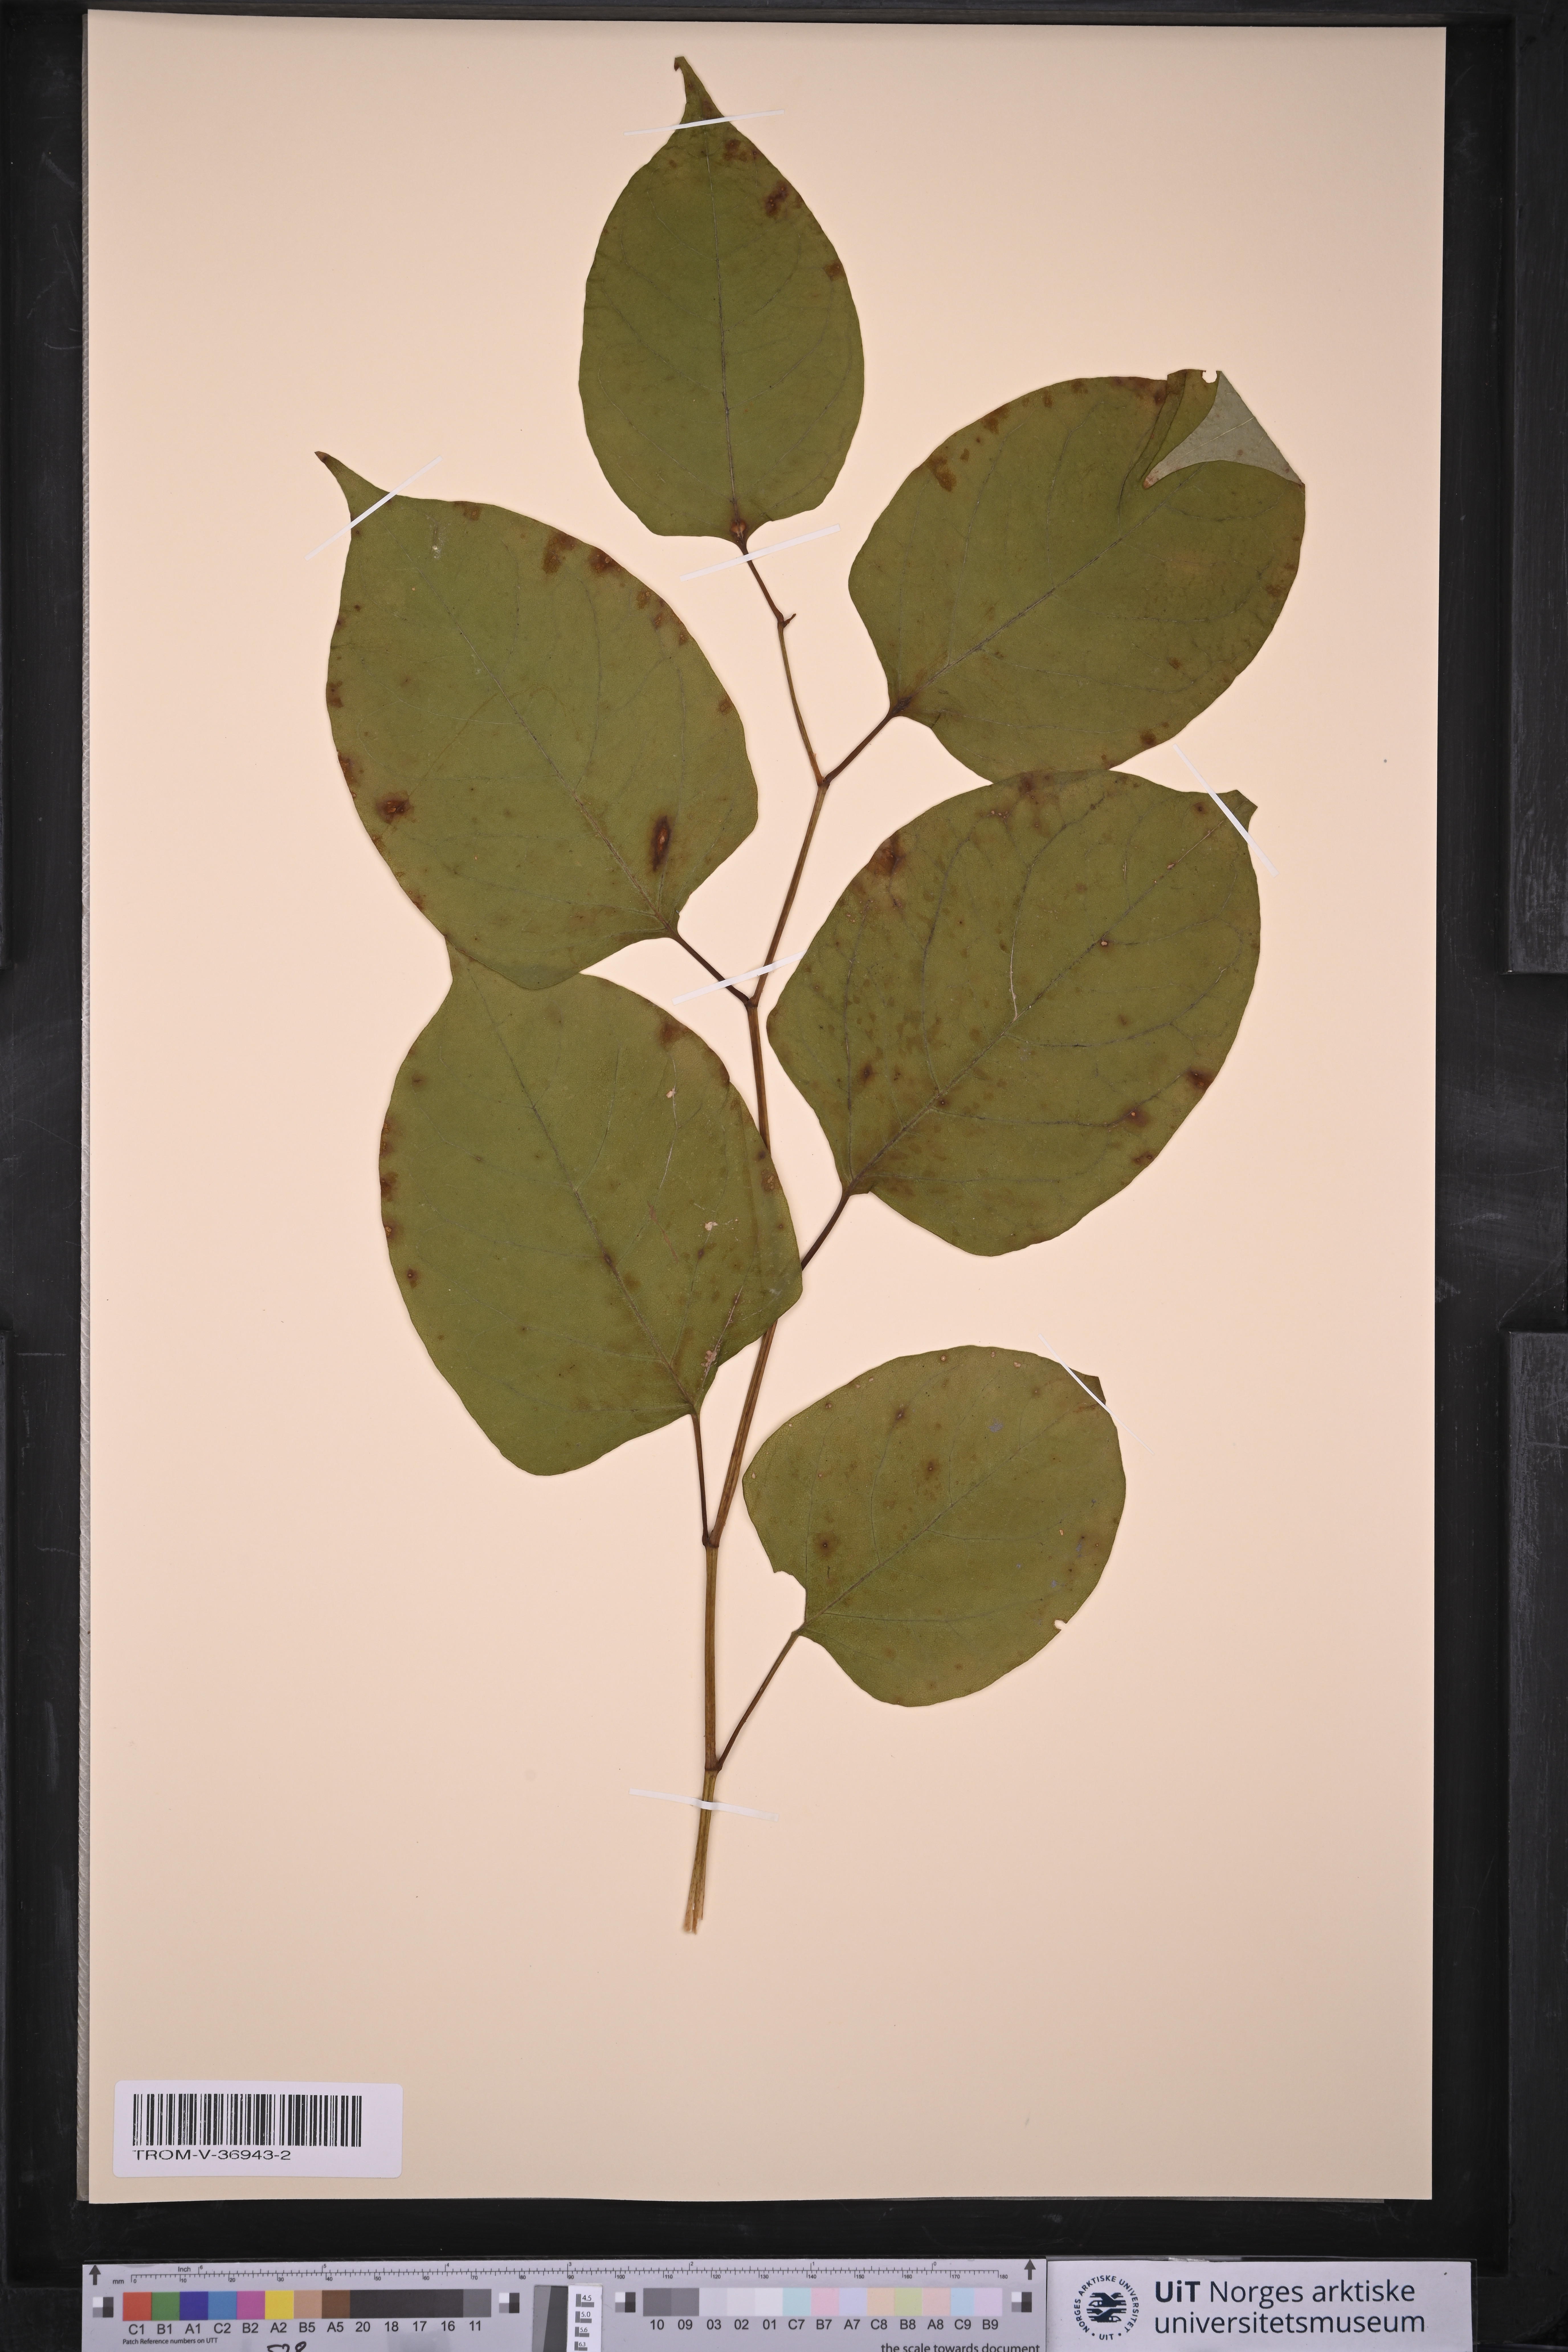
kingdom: Plantae
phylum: Tracheophyta
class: Magnoliopsida
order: Caryophyllales
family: Polygonaceae
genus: Reynoutria
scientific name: Reynoutria japonica
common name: Japanese knotweed
